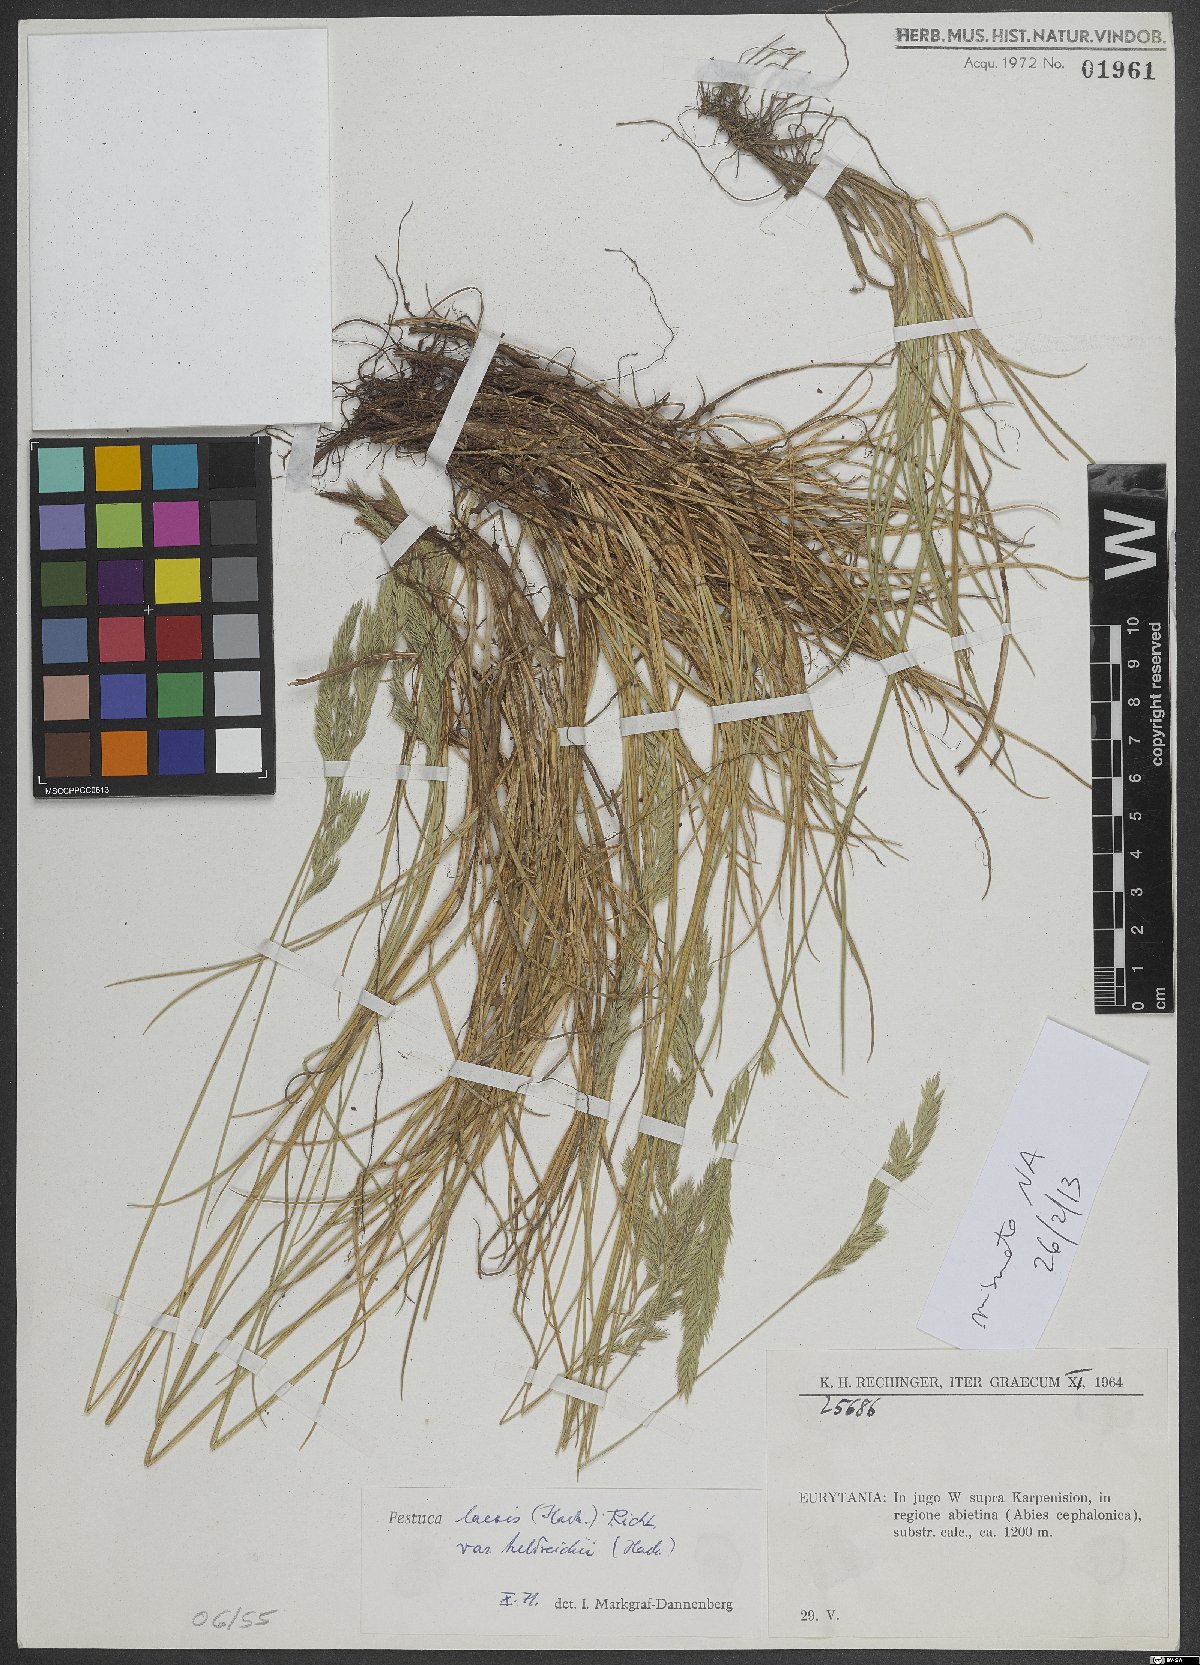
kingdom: Plantae
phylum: Tracheophyta
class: Liliopsida
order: Poales
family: Poaceae
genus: Festuca
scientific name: Festuca laevis
